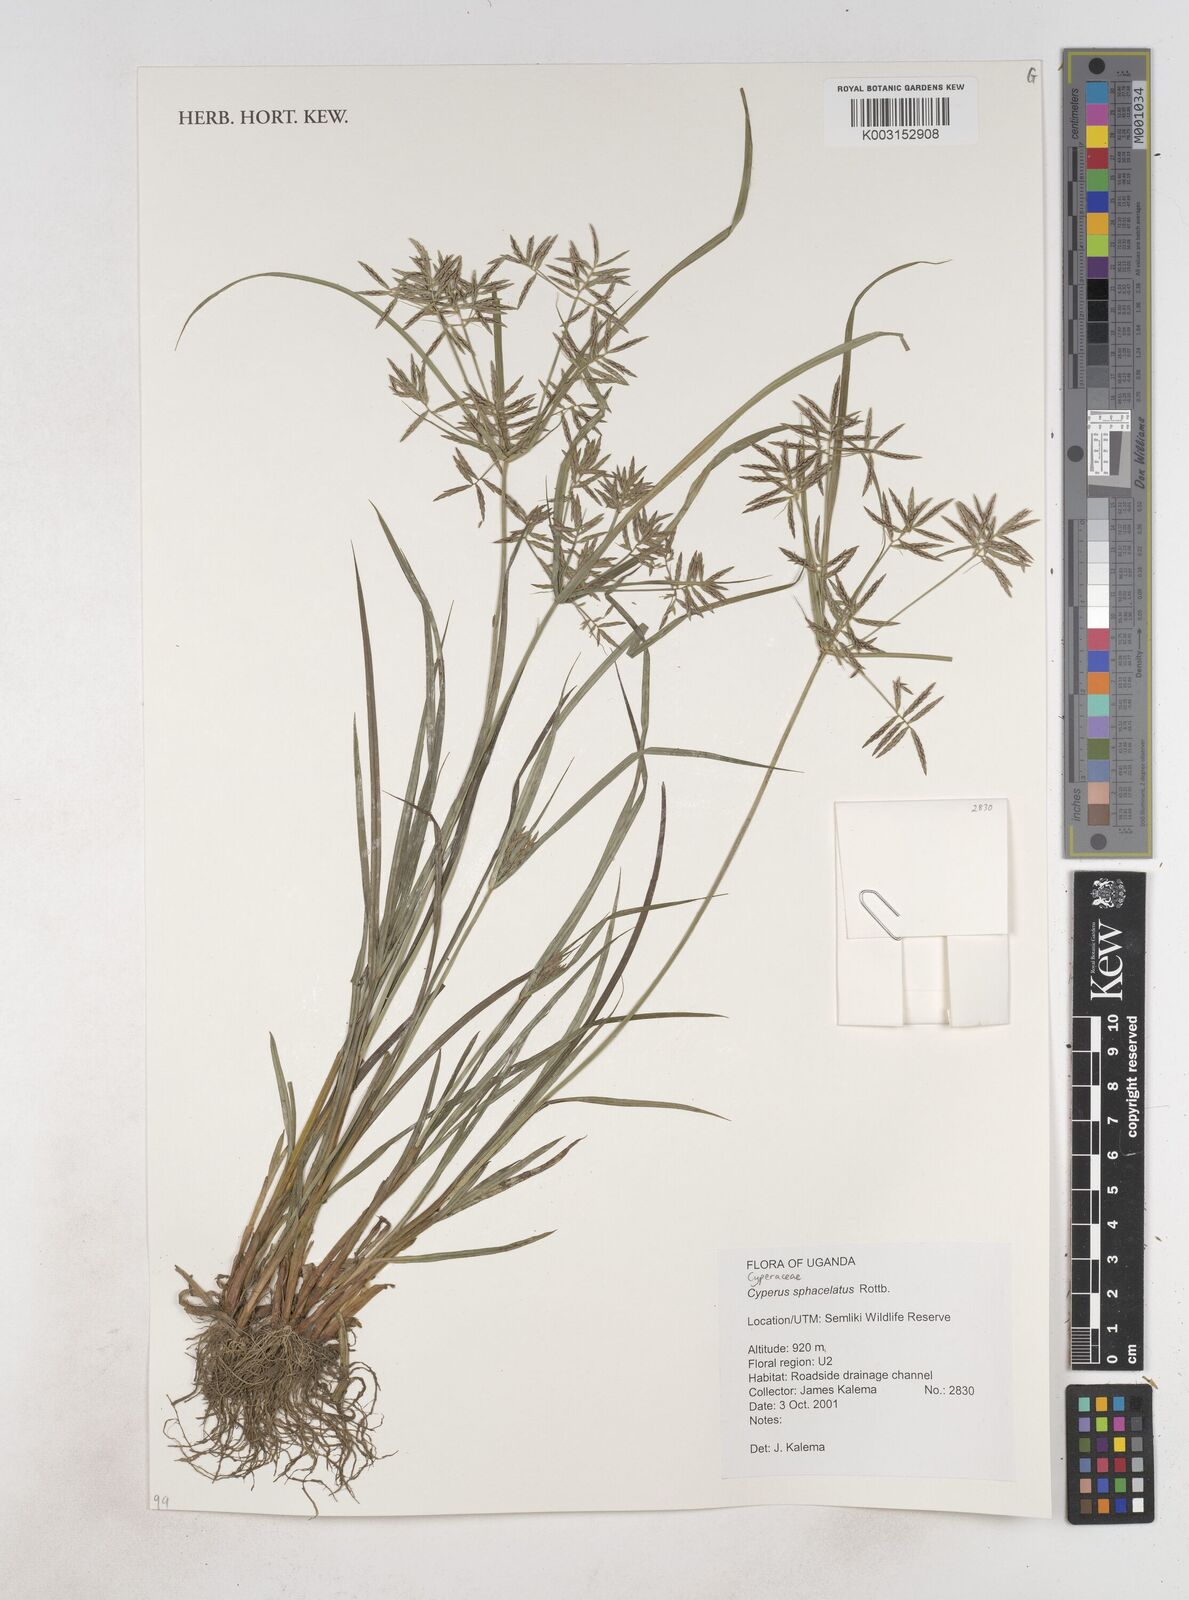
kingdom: Plantae
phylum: Tracheophyta
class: Liliopsida
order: Poales
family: Cyperaceae
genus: Cyperus
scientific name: Cyperus sphacelatus
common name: Roadside flatsedge
